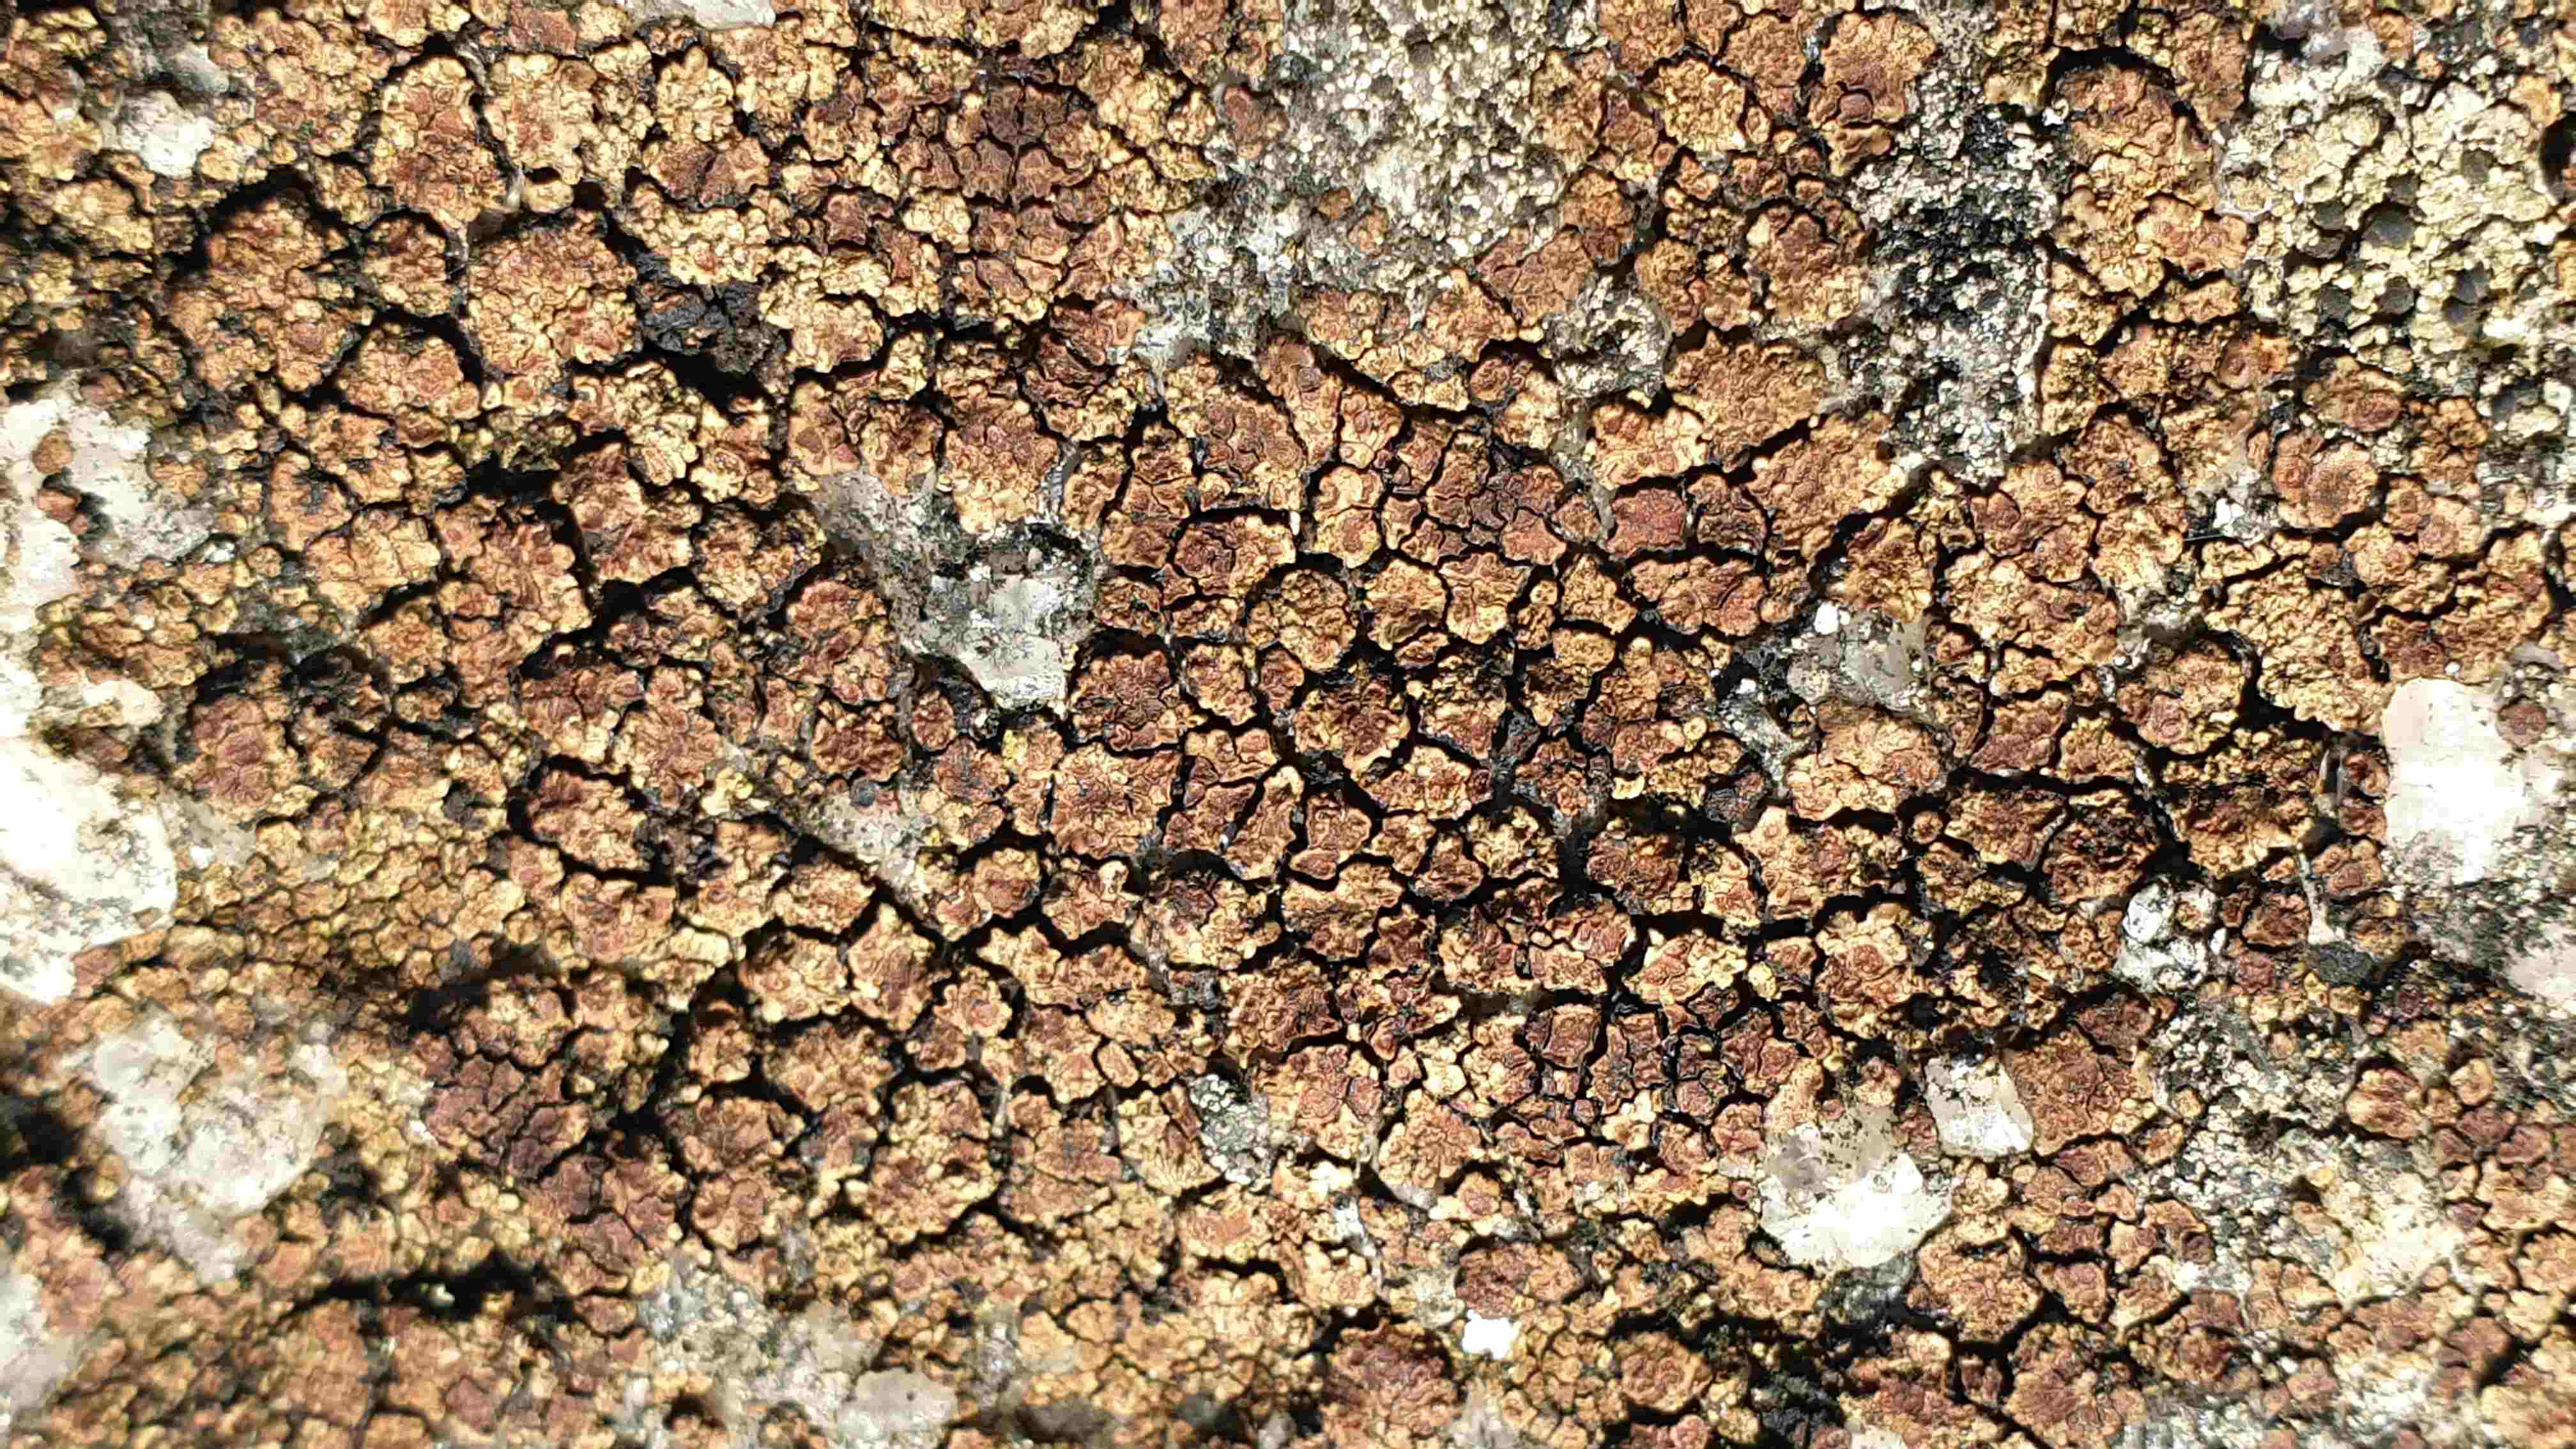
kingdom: Fungi
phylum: Ascomycota
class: Lecanoromycetes
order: Acarosporales
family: Acarosporaceae
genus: Acarospora
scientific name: Acarospora fuscata
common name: brun småsporelav
